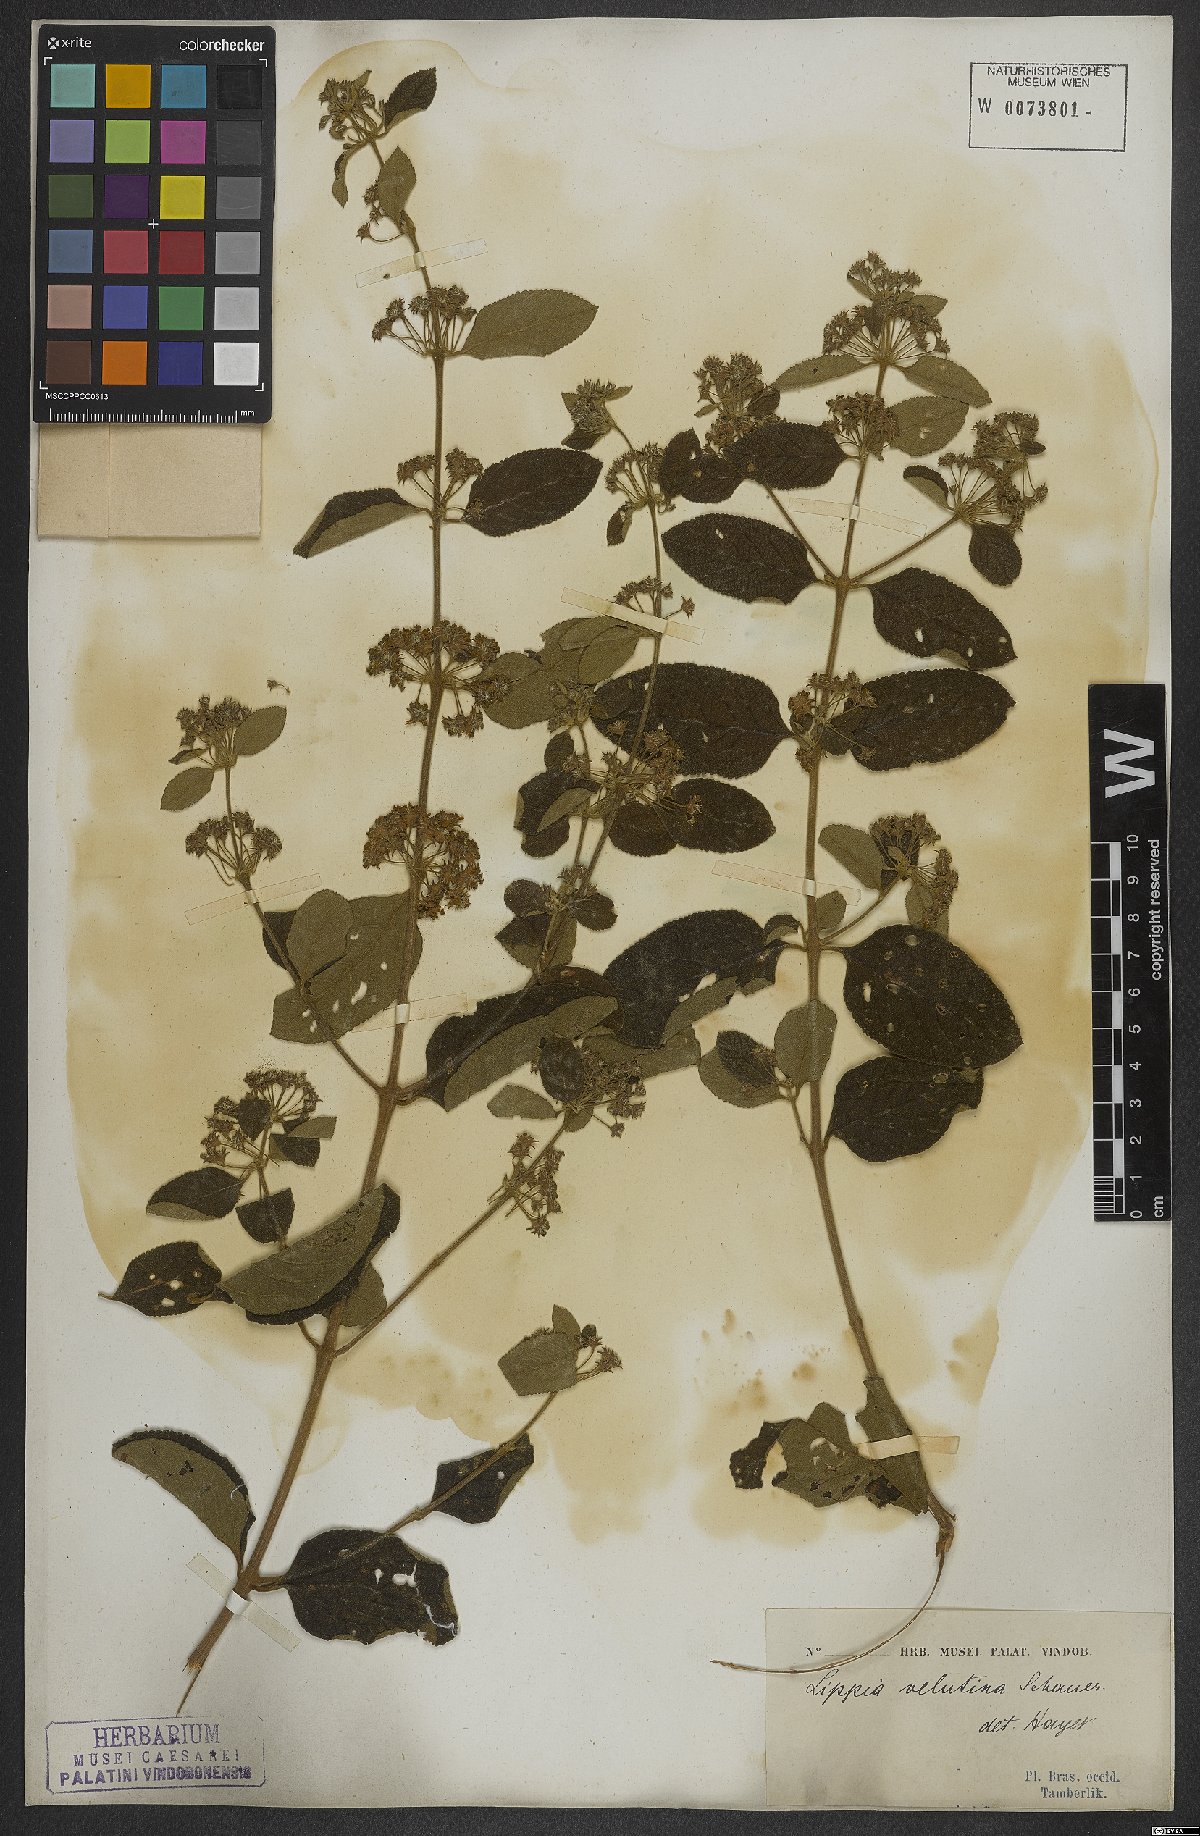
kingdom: Plantae
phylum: Tracheophyta
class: Magnoliopsida
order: Lamiales
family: Verbenaceae
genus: Lippia
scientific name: Lippia origanoides
